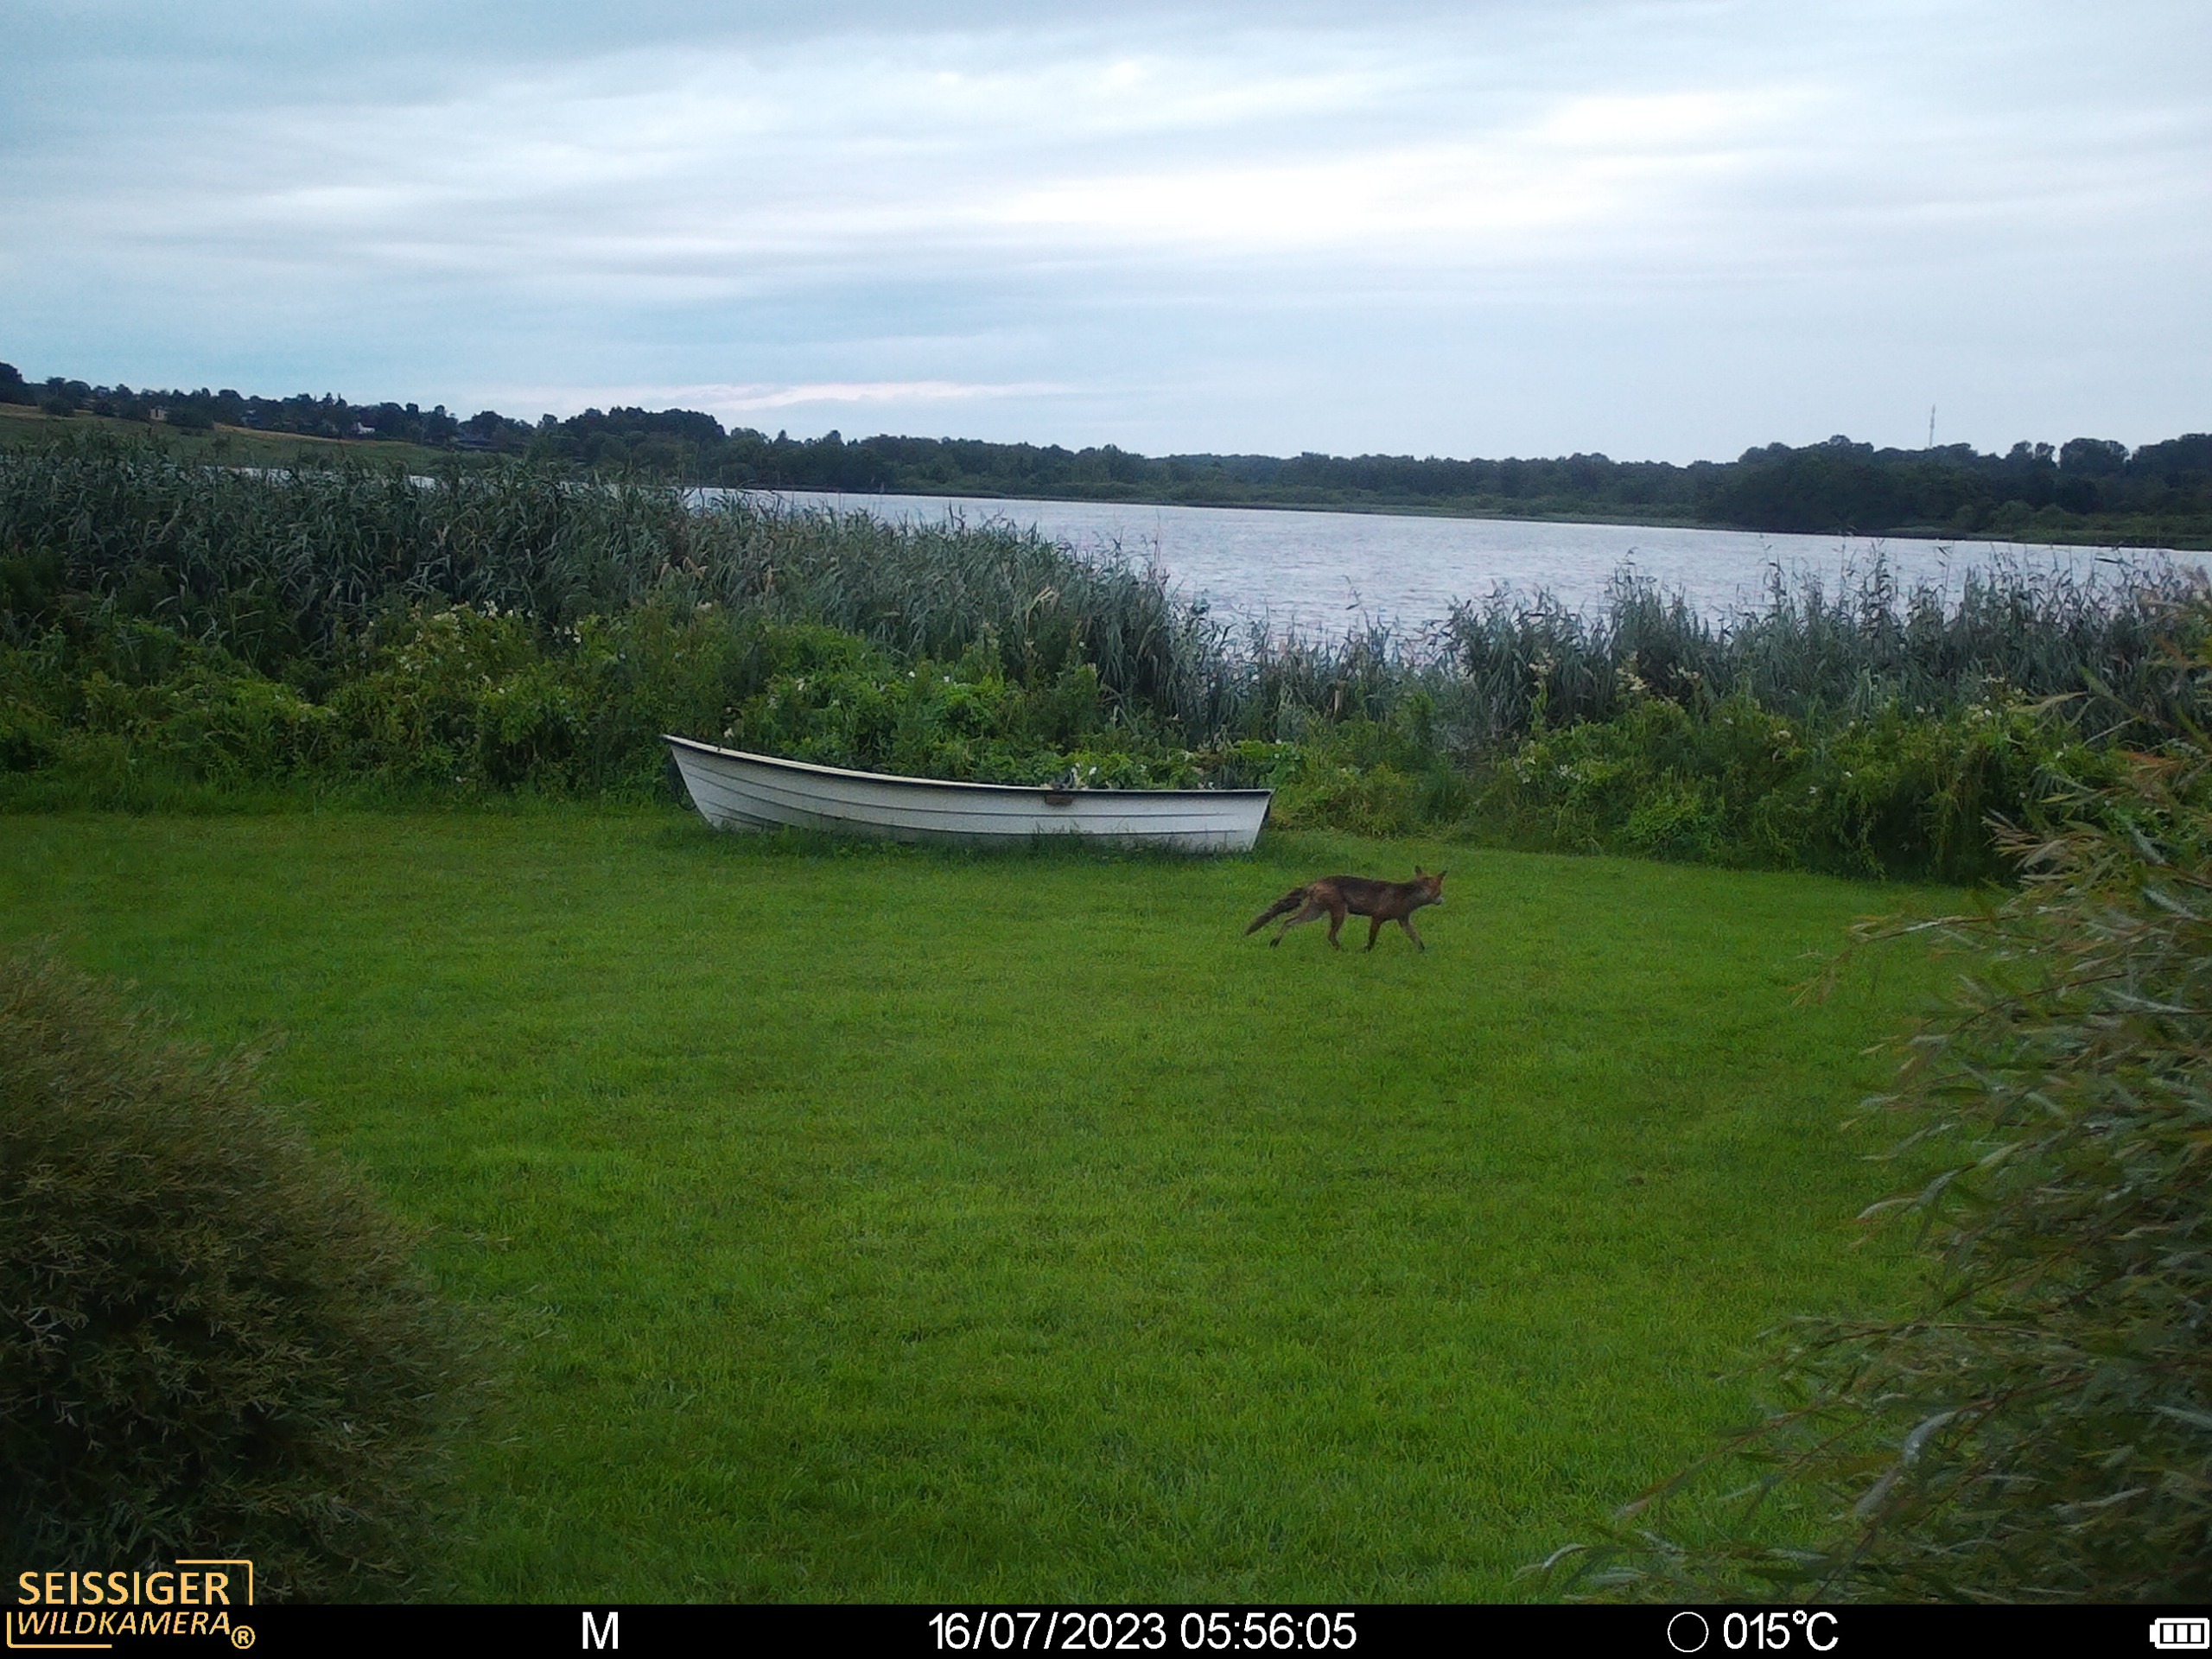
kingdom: Animalia
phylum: Chordata
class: Mammalia
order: Carnivora
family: Canidae
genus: Vulpes
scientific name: Vulpes vulpes
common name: Ræv
